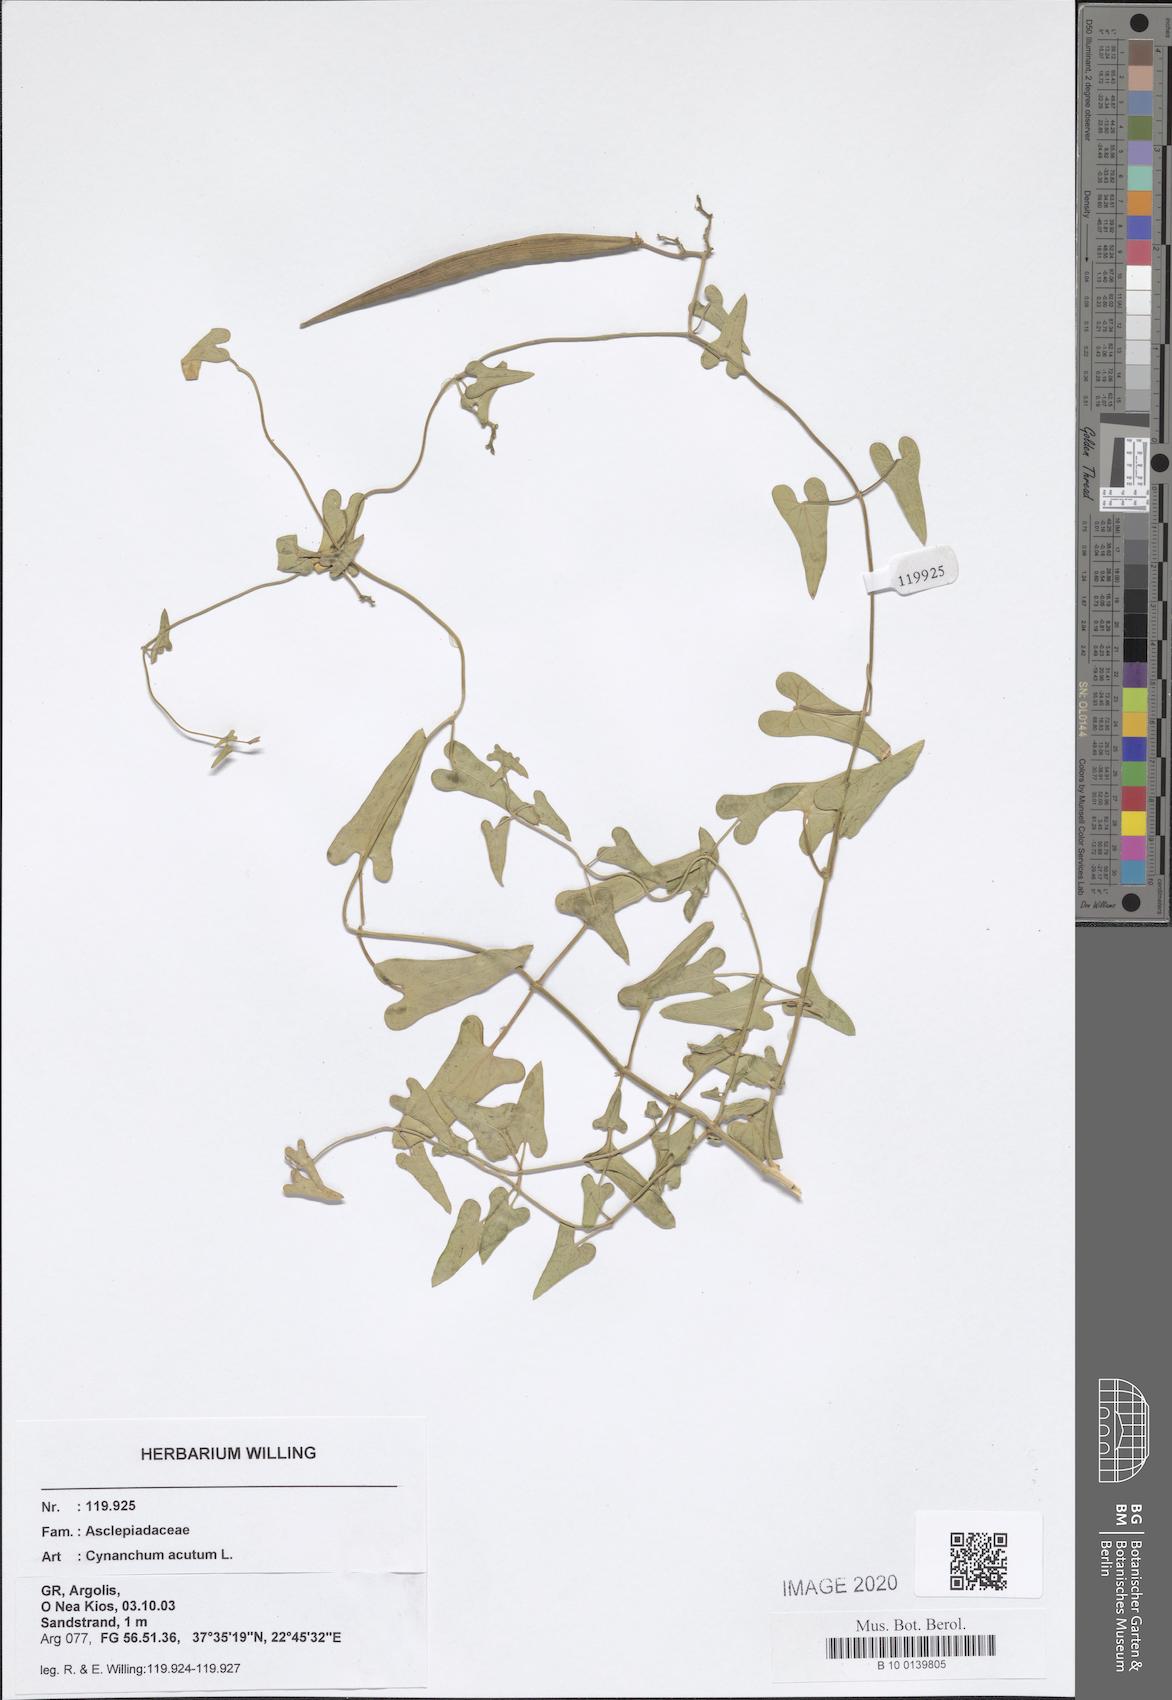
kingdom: Plantae
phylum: Tracheophyta
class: Magnoliopsida
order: Gentianales
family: Apocynaceae
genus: Cynanchum
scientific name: Cynanchum acutum
